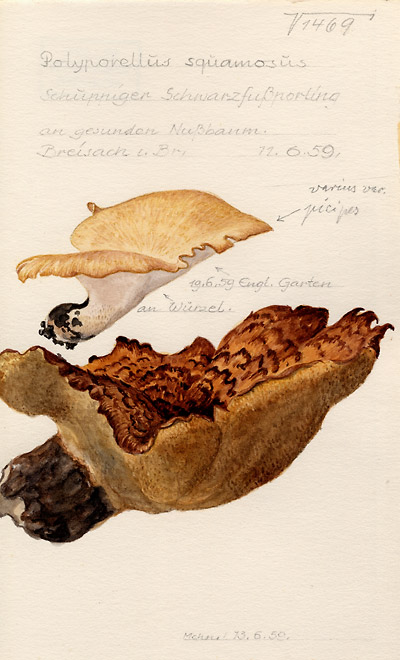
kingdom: Fungi
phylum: Basidiomycota
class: Agaricomycetes
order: Polyporales
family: Polyporaceae
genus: Polyporus
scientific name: Polyporus squamosus
